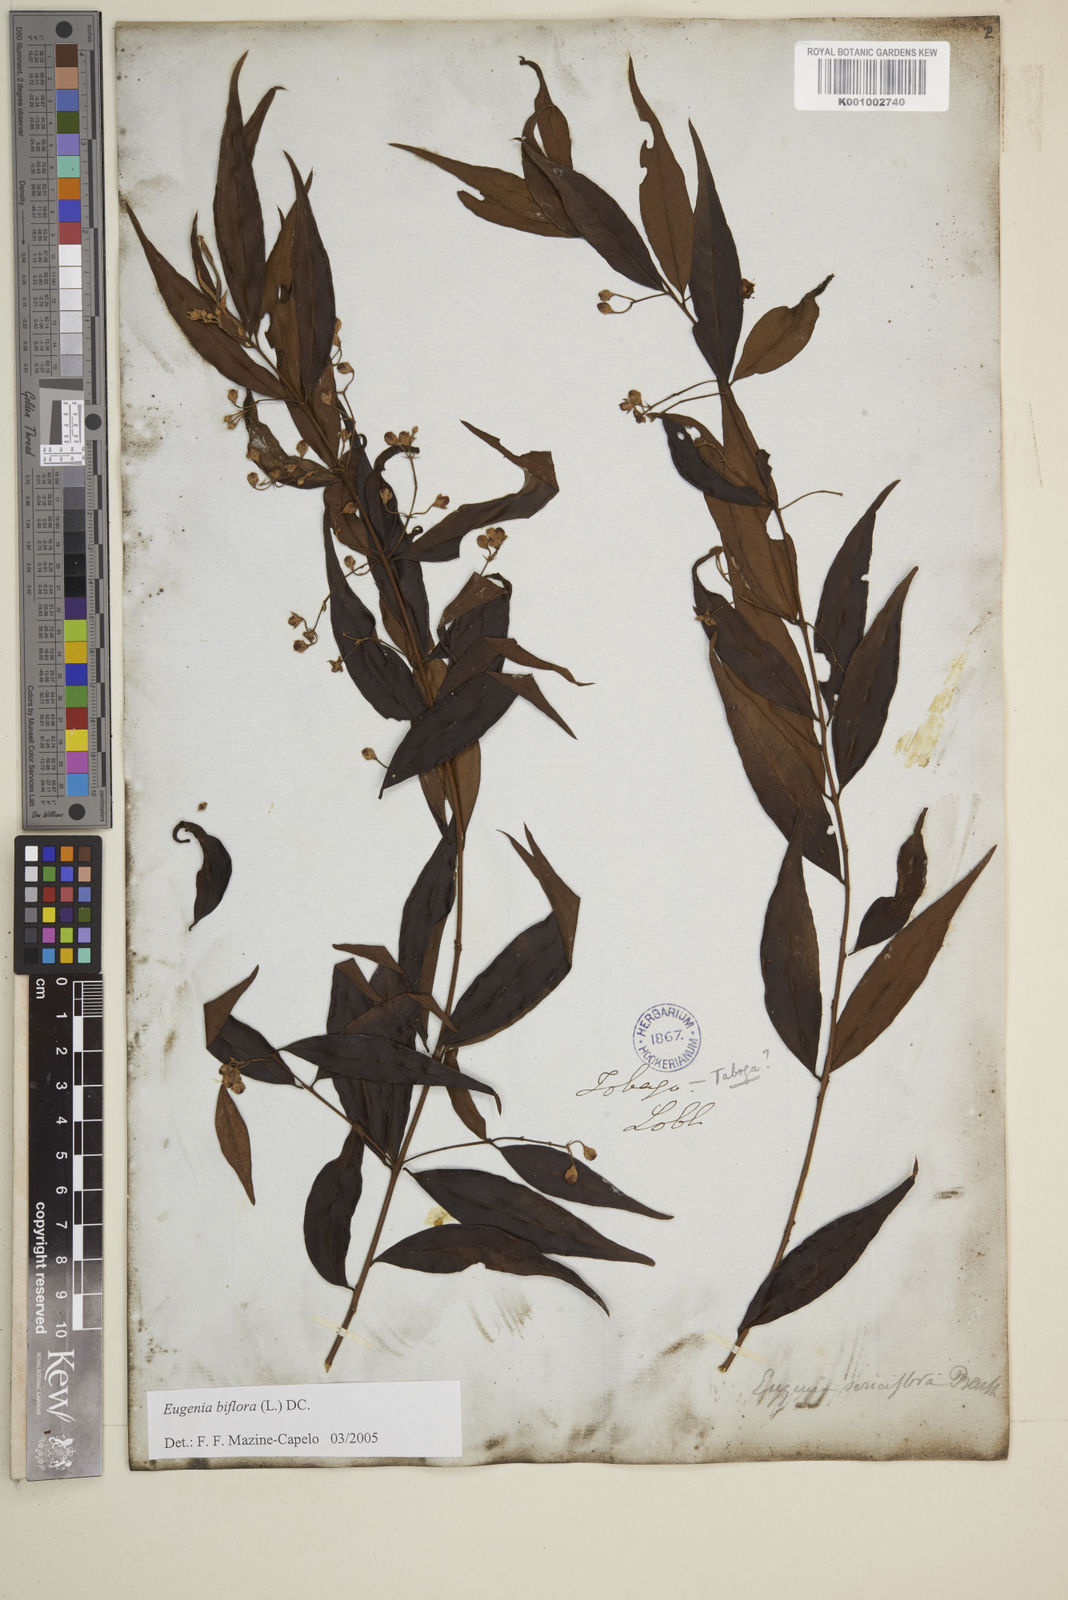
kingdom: Plantae
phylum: Tracheophyta
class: Magnoliopsida
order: Myrtales
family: Myrtaceae
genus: Eugenia
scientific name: Eugenia biflora
